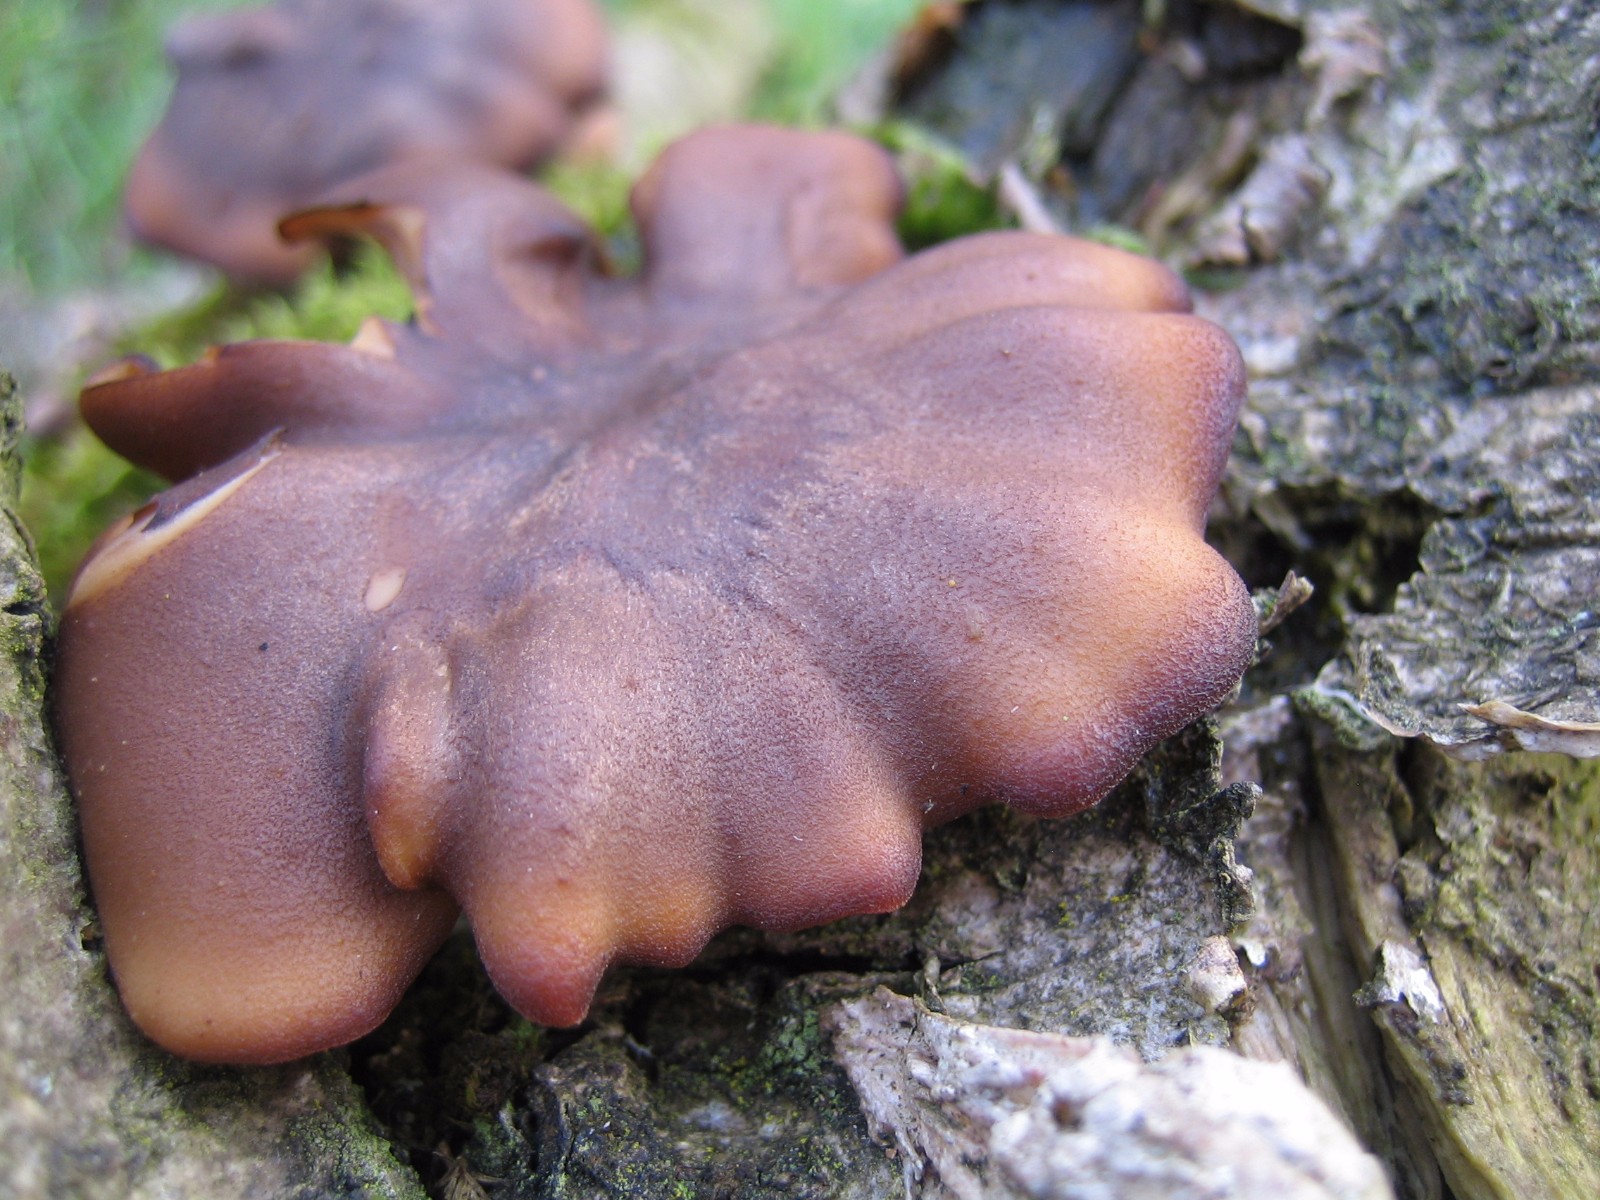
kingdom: Fungi
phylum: Basidiomycota
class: Agaricomycetes
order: Polyporales
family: Polyporaceae
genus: Lentinus
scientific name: Lentinus brumalis
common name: vinter-stilkporesvamp
